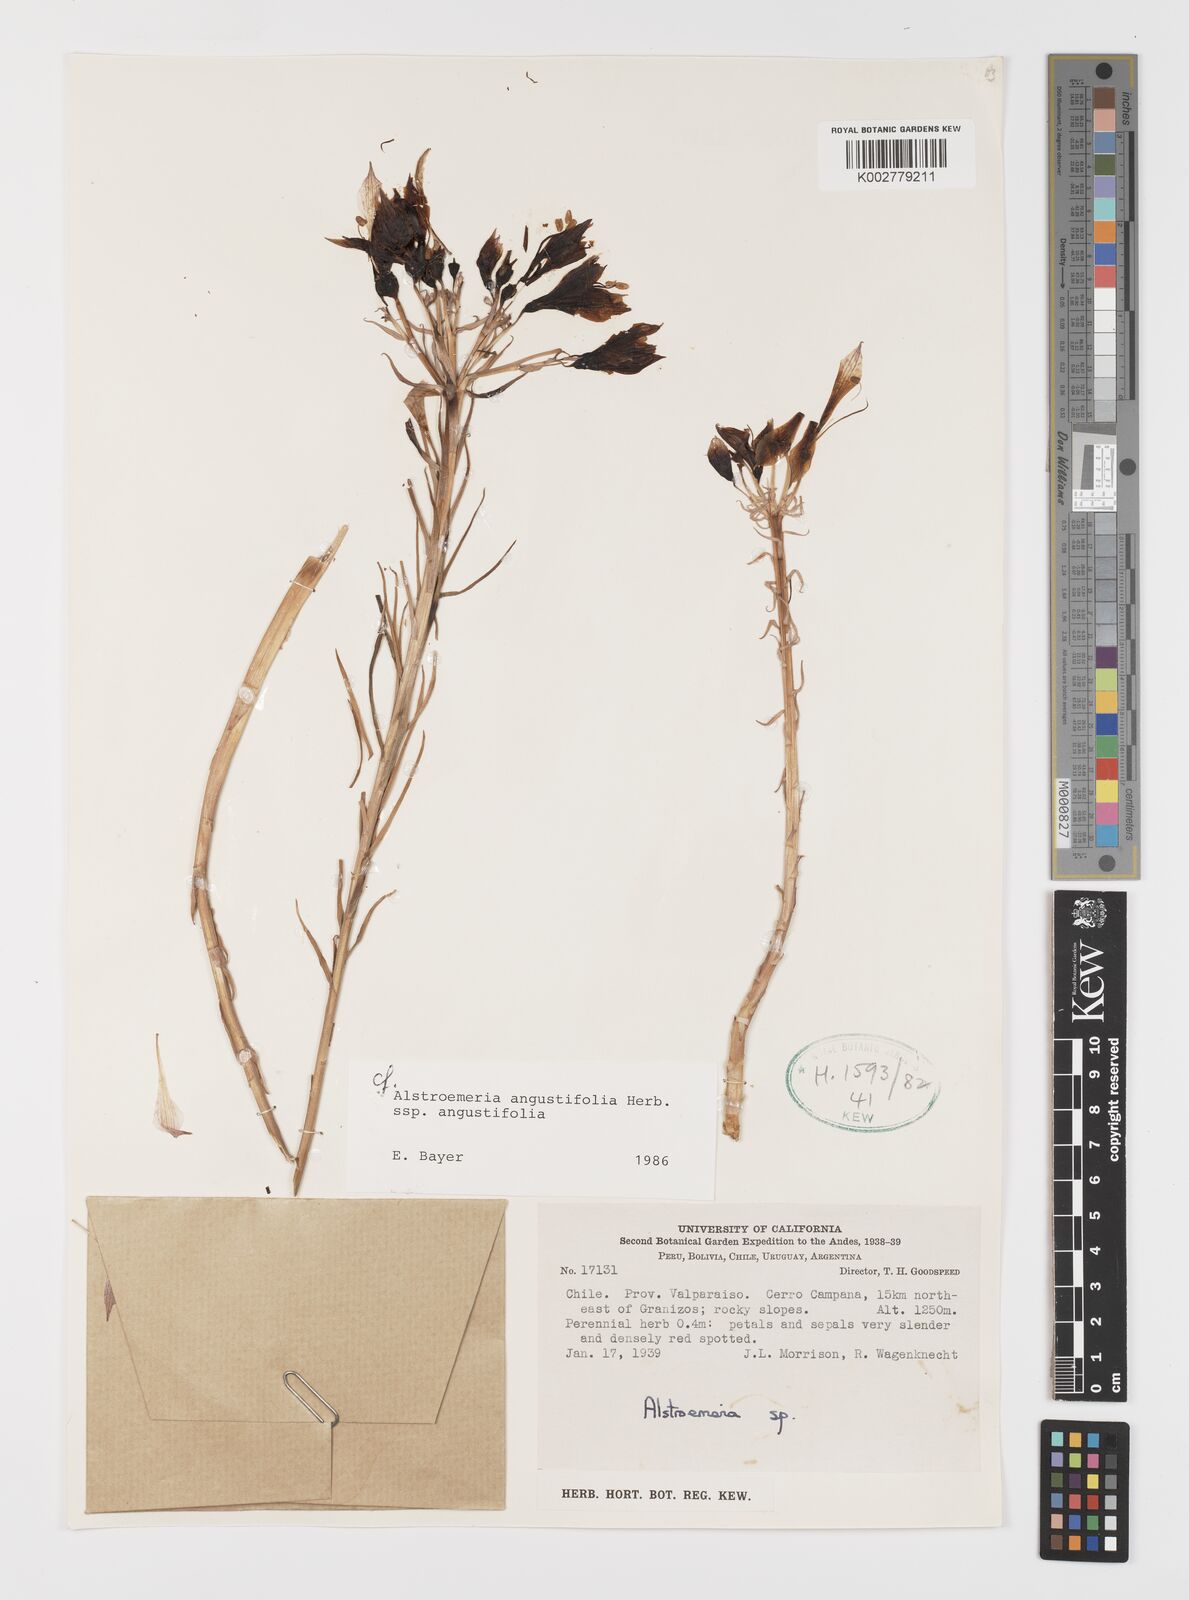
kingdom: Plantae
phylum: Tracheophyta
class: Liliopsida
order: Liliales
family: Alstroemeriaceae
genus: Alstroemeria
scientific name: Alstroemeria angustifolia
